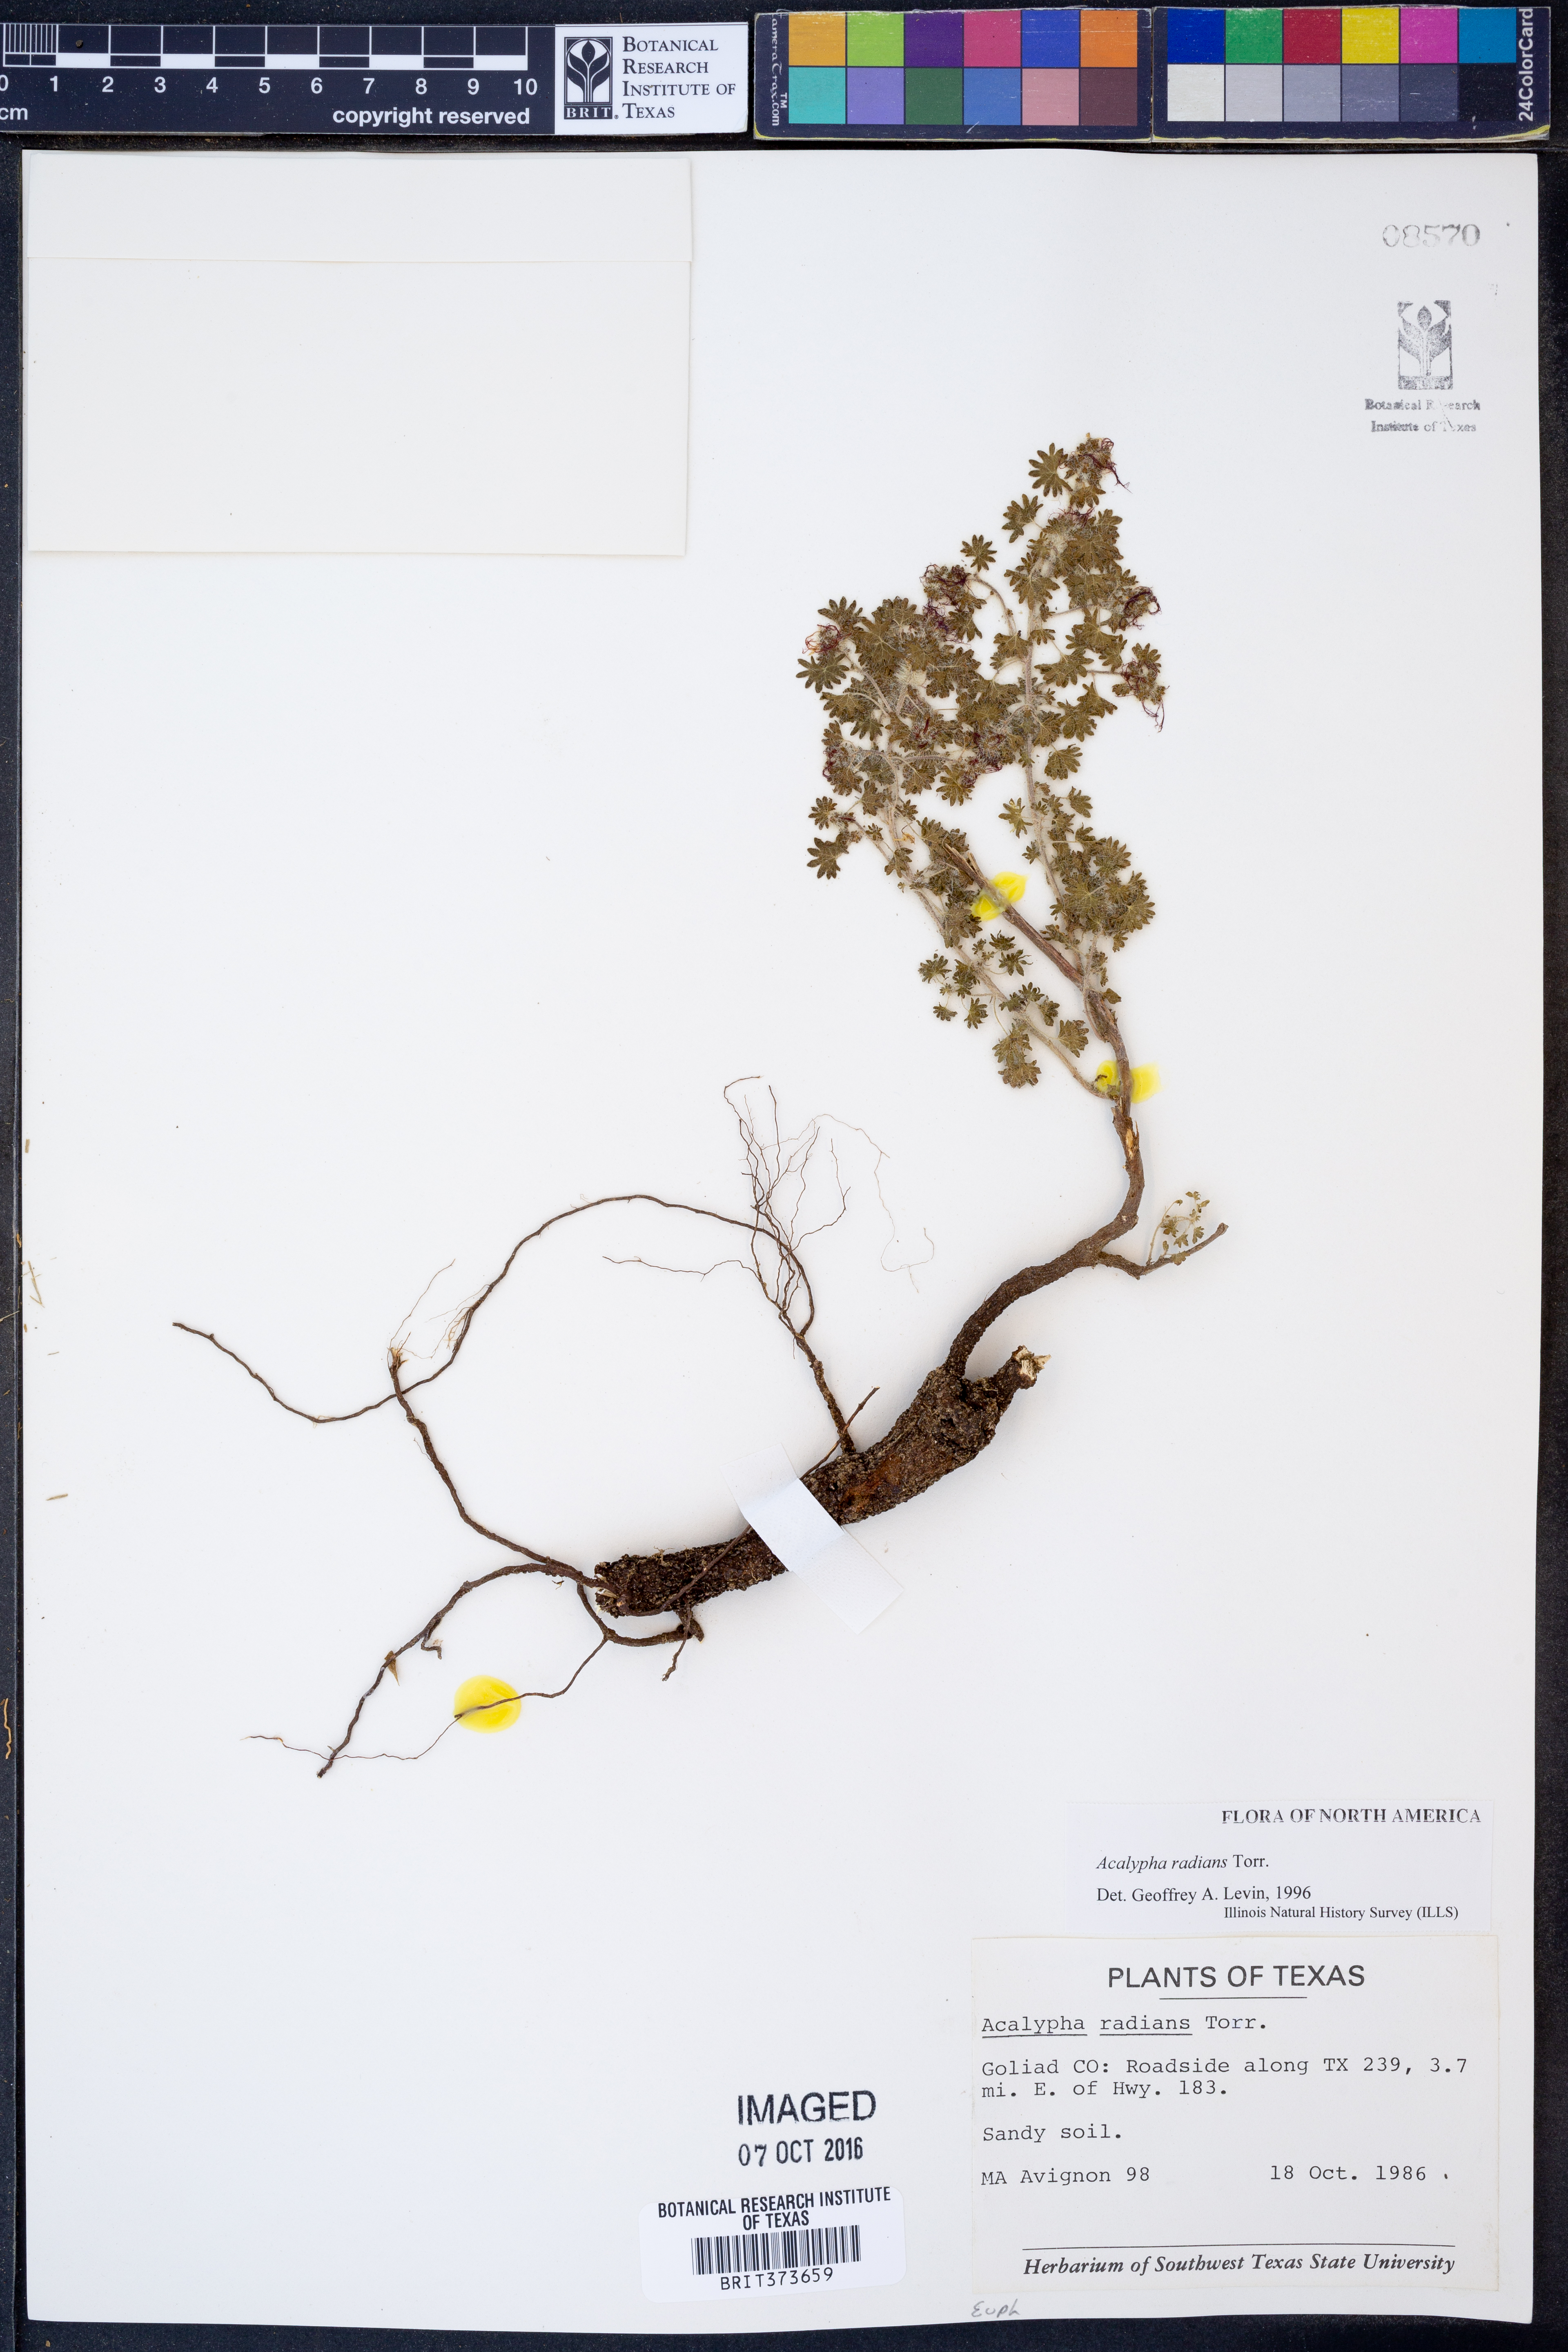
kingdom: Plantae
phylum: Tracheophyta
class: Magnoliopsida
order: Malpighiales
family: Euphorbiaceae
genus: Acalypha
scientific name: Acalypha radians
